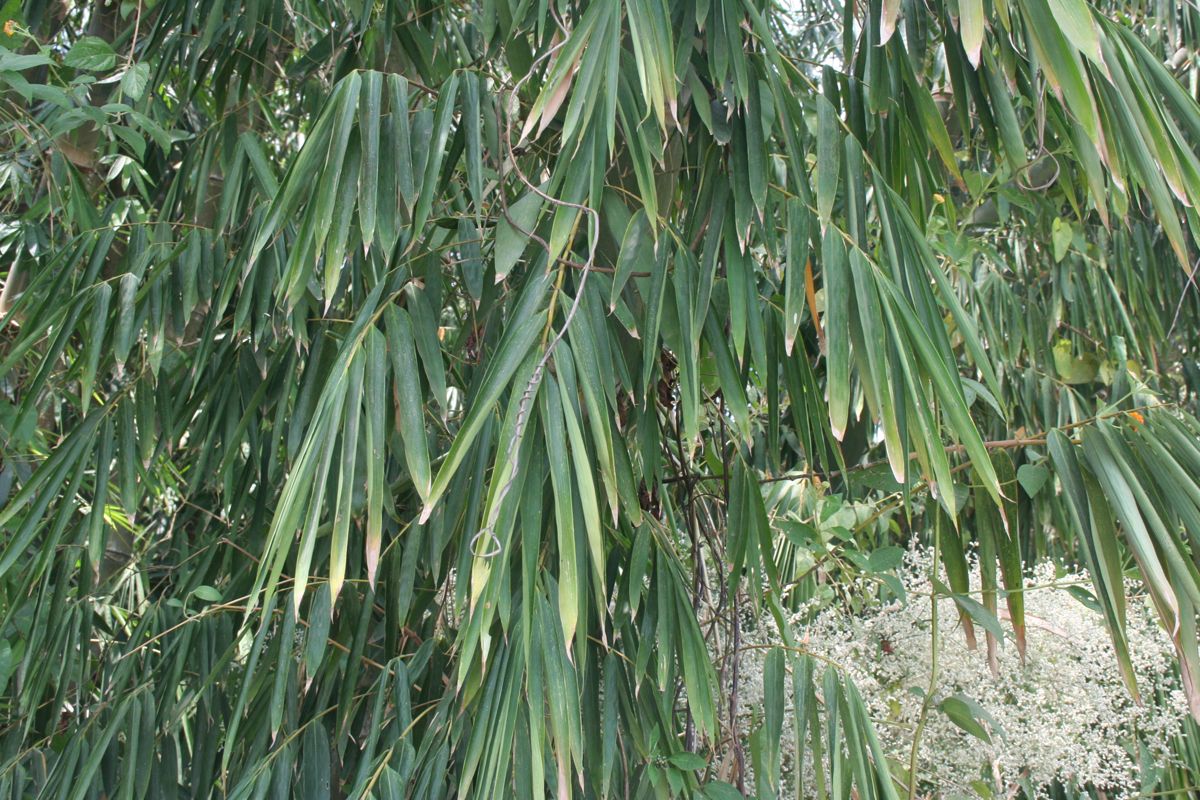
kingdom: Plantae
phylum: Tracheophyta
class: Liliopsida
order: Poales
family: Poaceae
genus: Dendrocalamus
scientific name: Dendrocalamus asper
